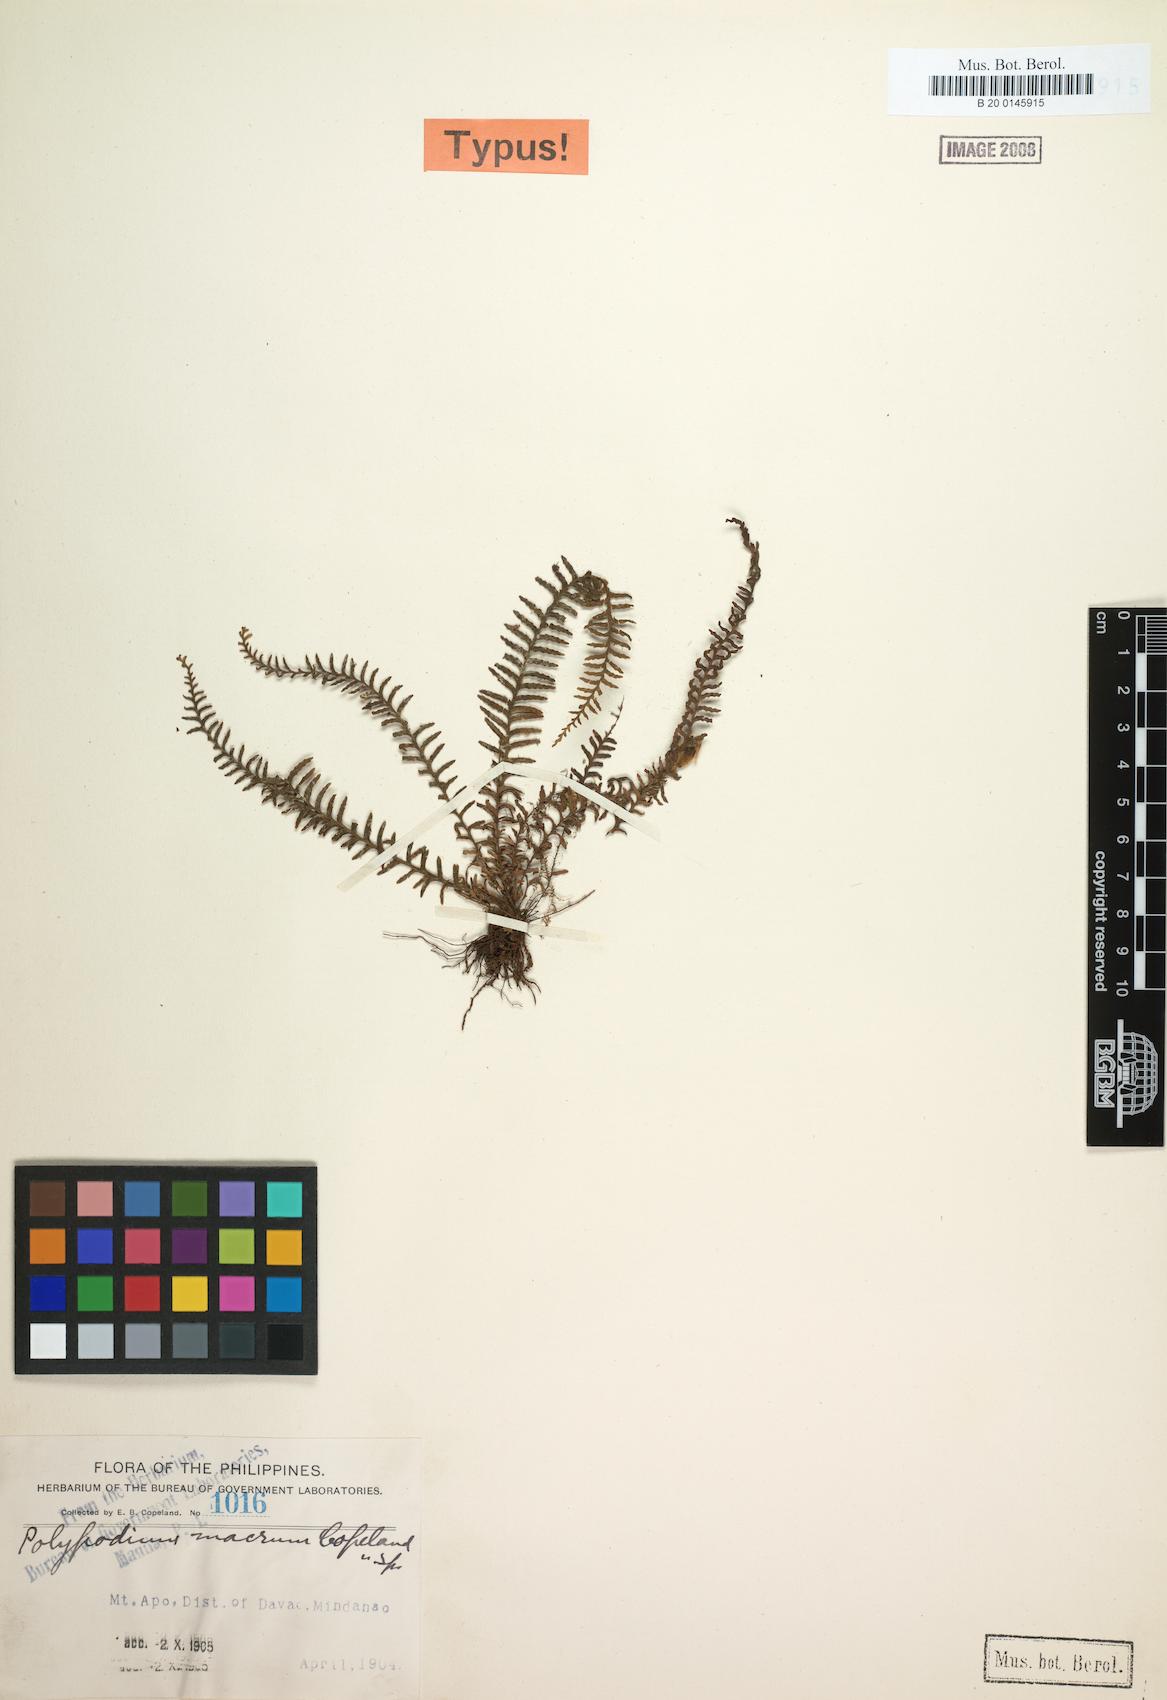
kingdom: Plantae
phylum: Tracheophyta
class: Polypodiopsida
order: Polypodiales
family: Polypodiaceae
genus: Tomophyllum
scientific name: Tomophyllum macrum
